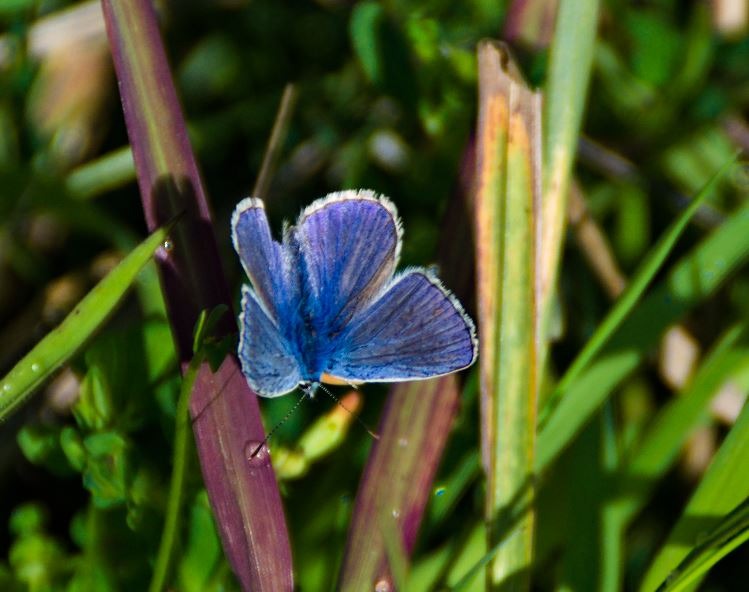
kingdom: Animalia
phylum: Arthropoda
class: Insecta
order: Lepidoptera
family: Lycaenidae
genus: Polyommatus
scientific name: Polyommatus icarus
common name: Almindelig blåfugl
